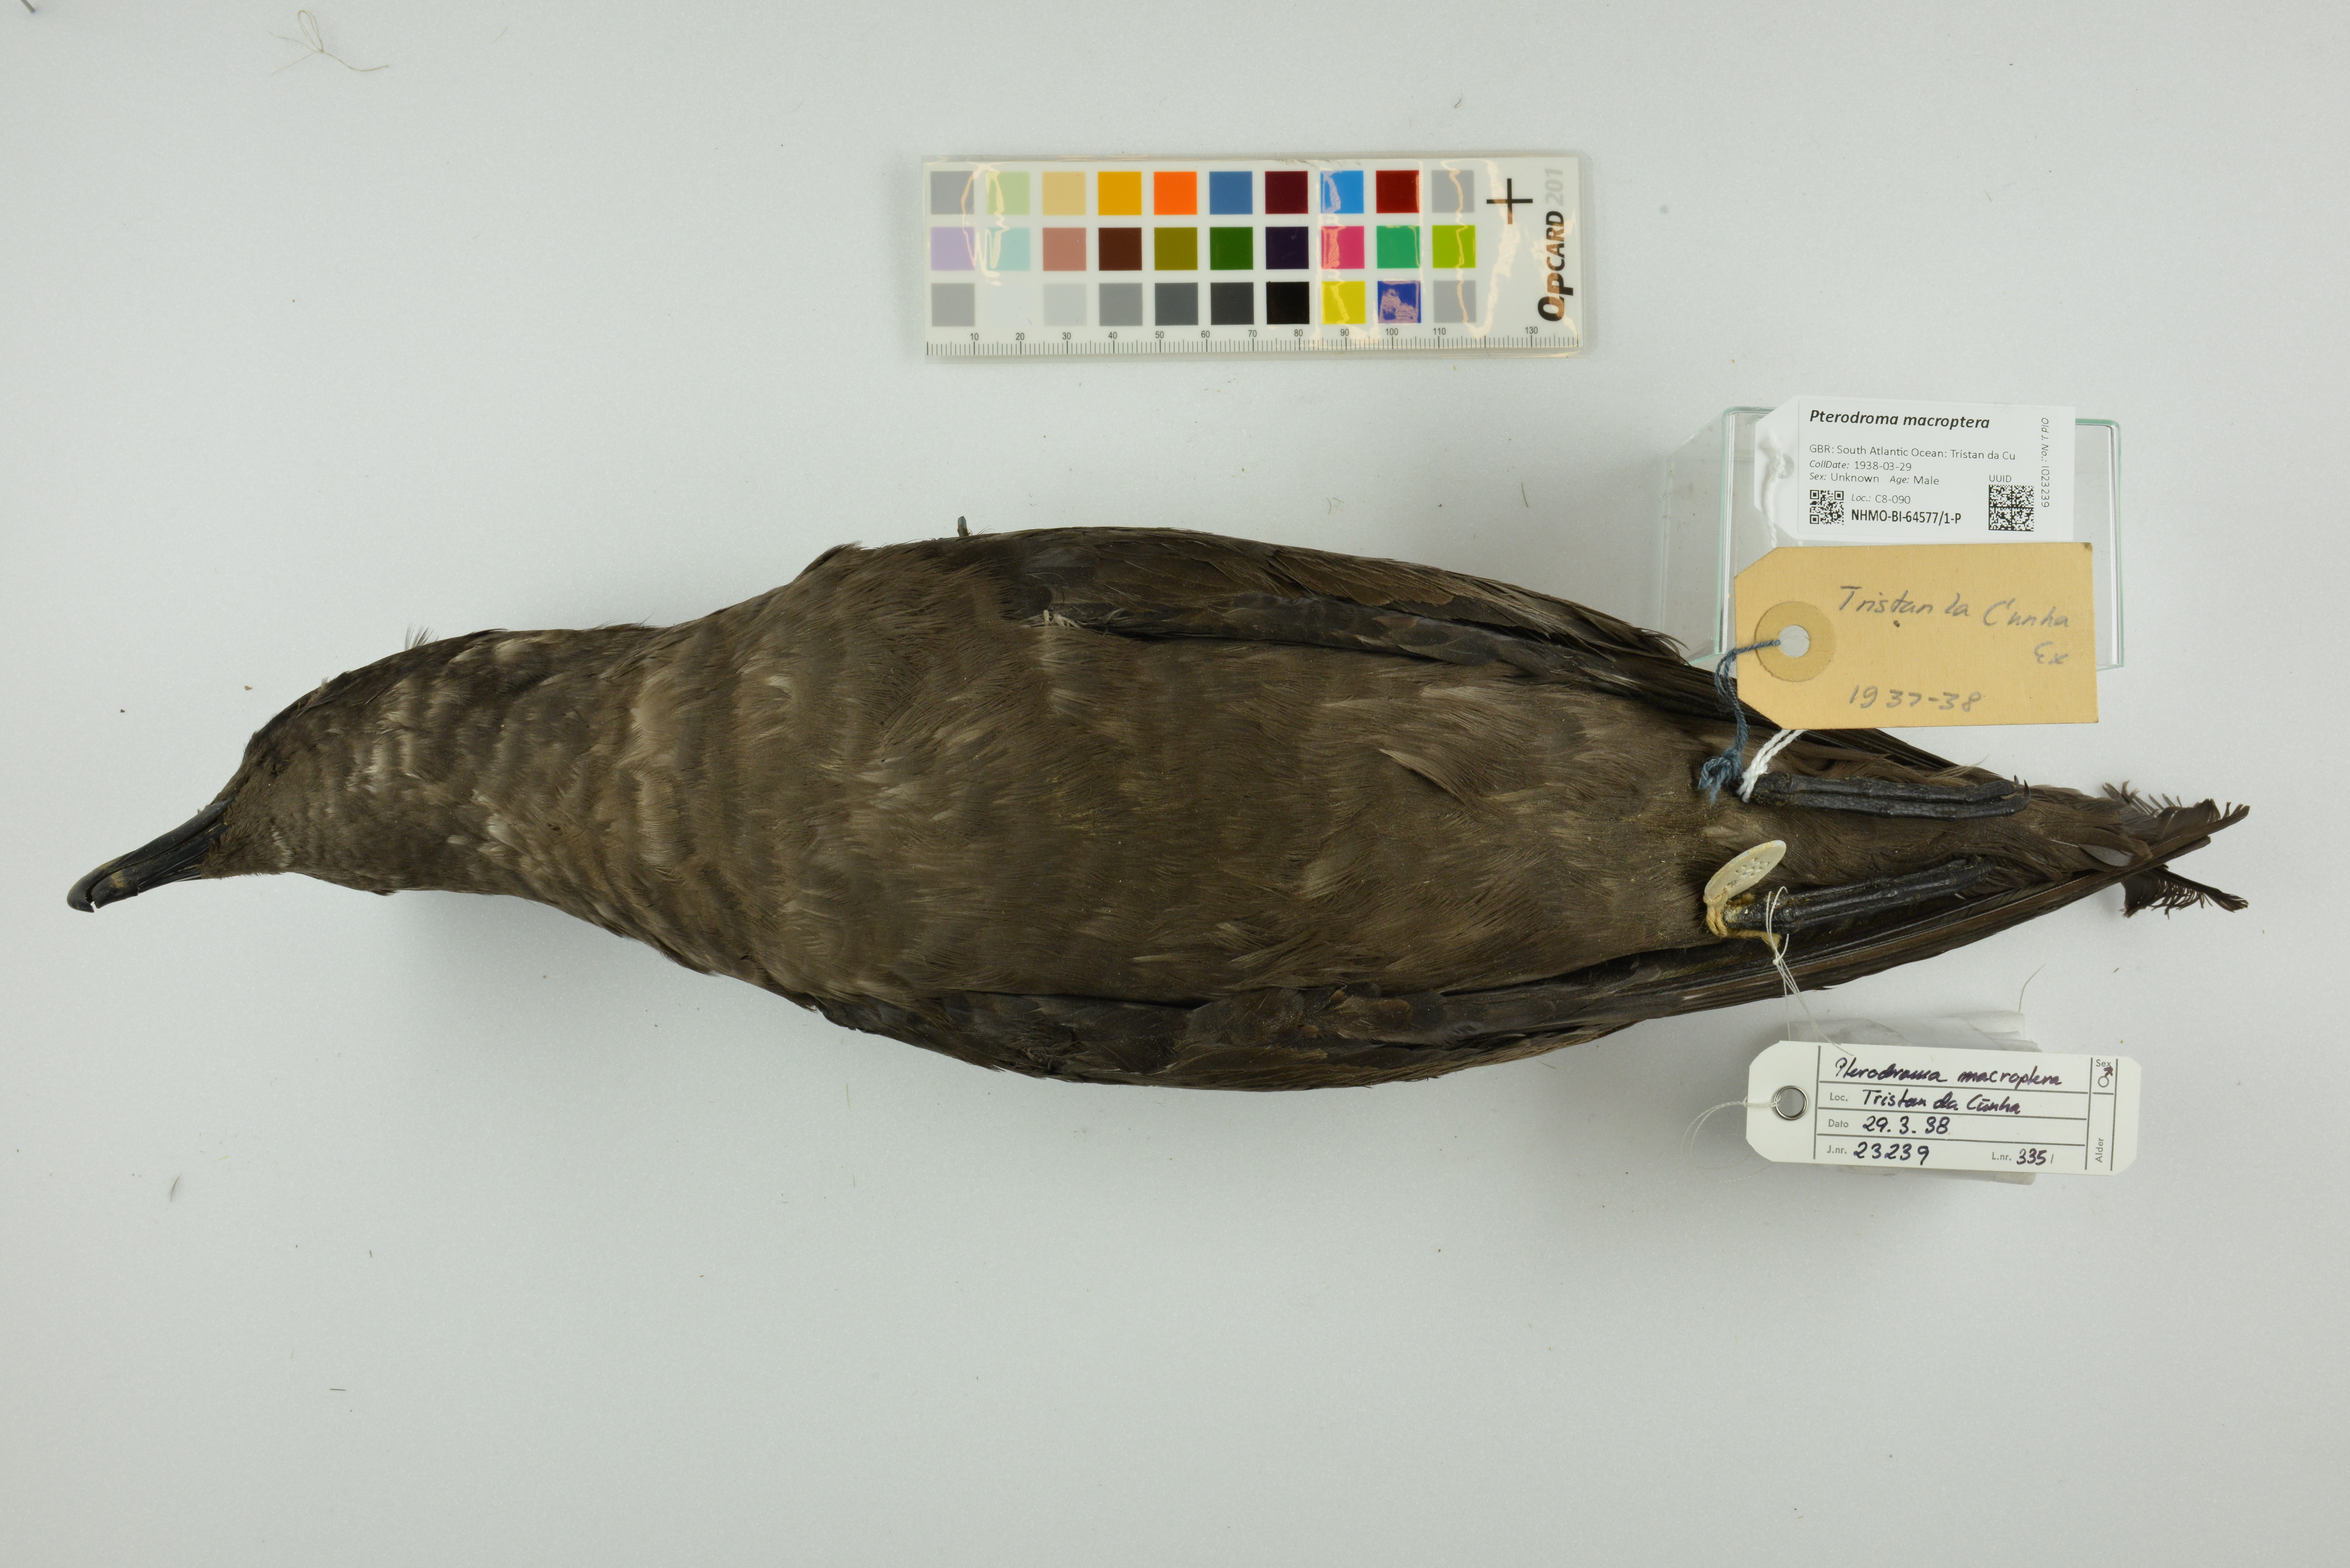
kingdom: Animalia
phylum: Chordata
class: Aves
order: Procellariiformes
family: Procellariidae
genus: Pterodroma
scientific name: Pterodroma macroptera
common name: Great-winged petrel
